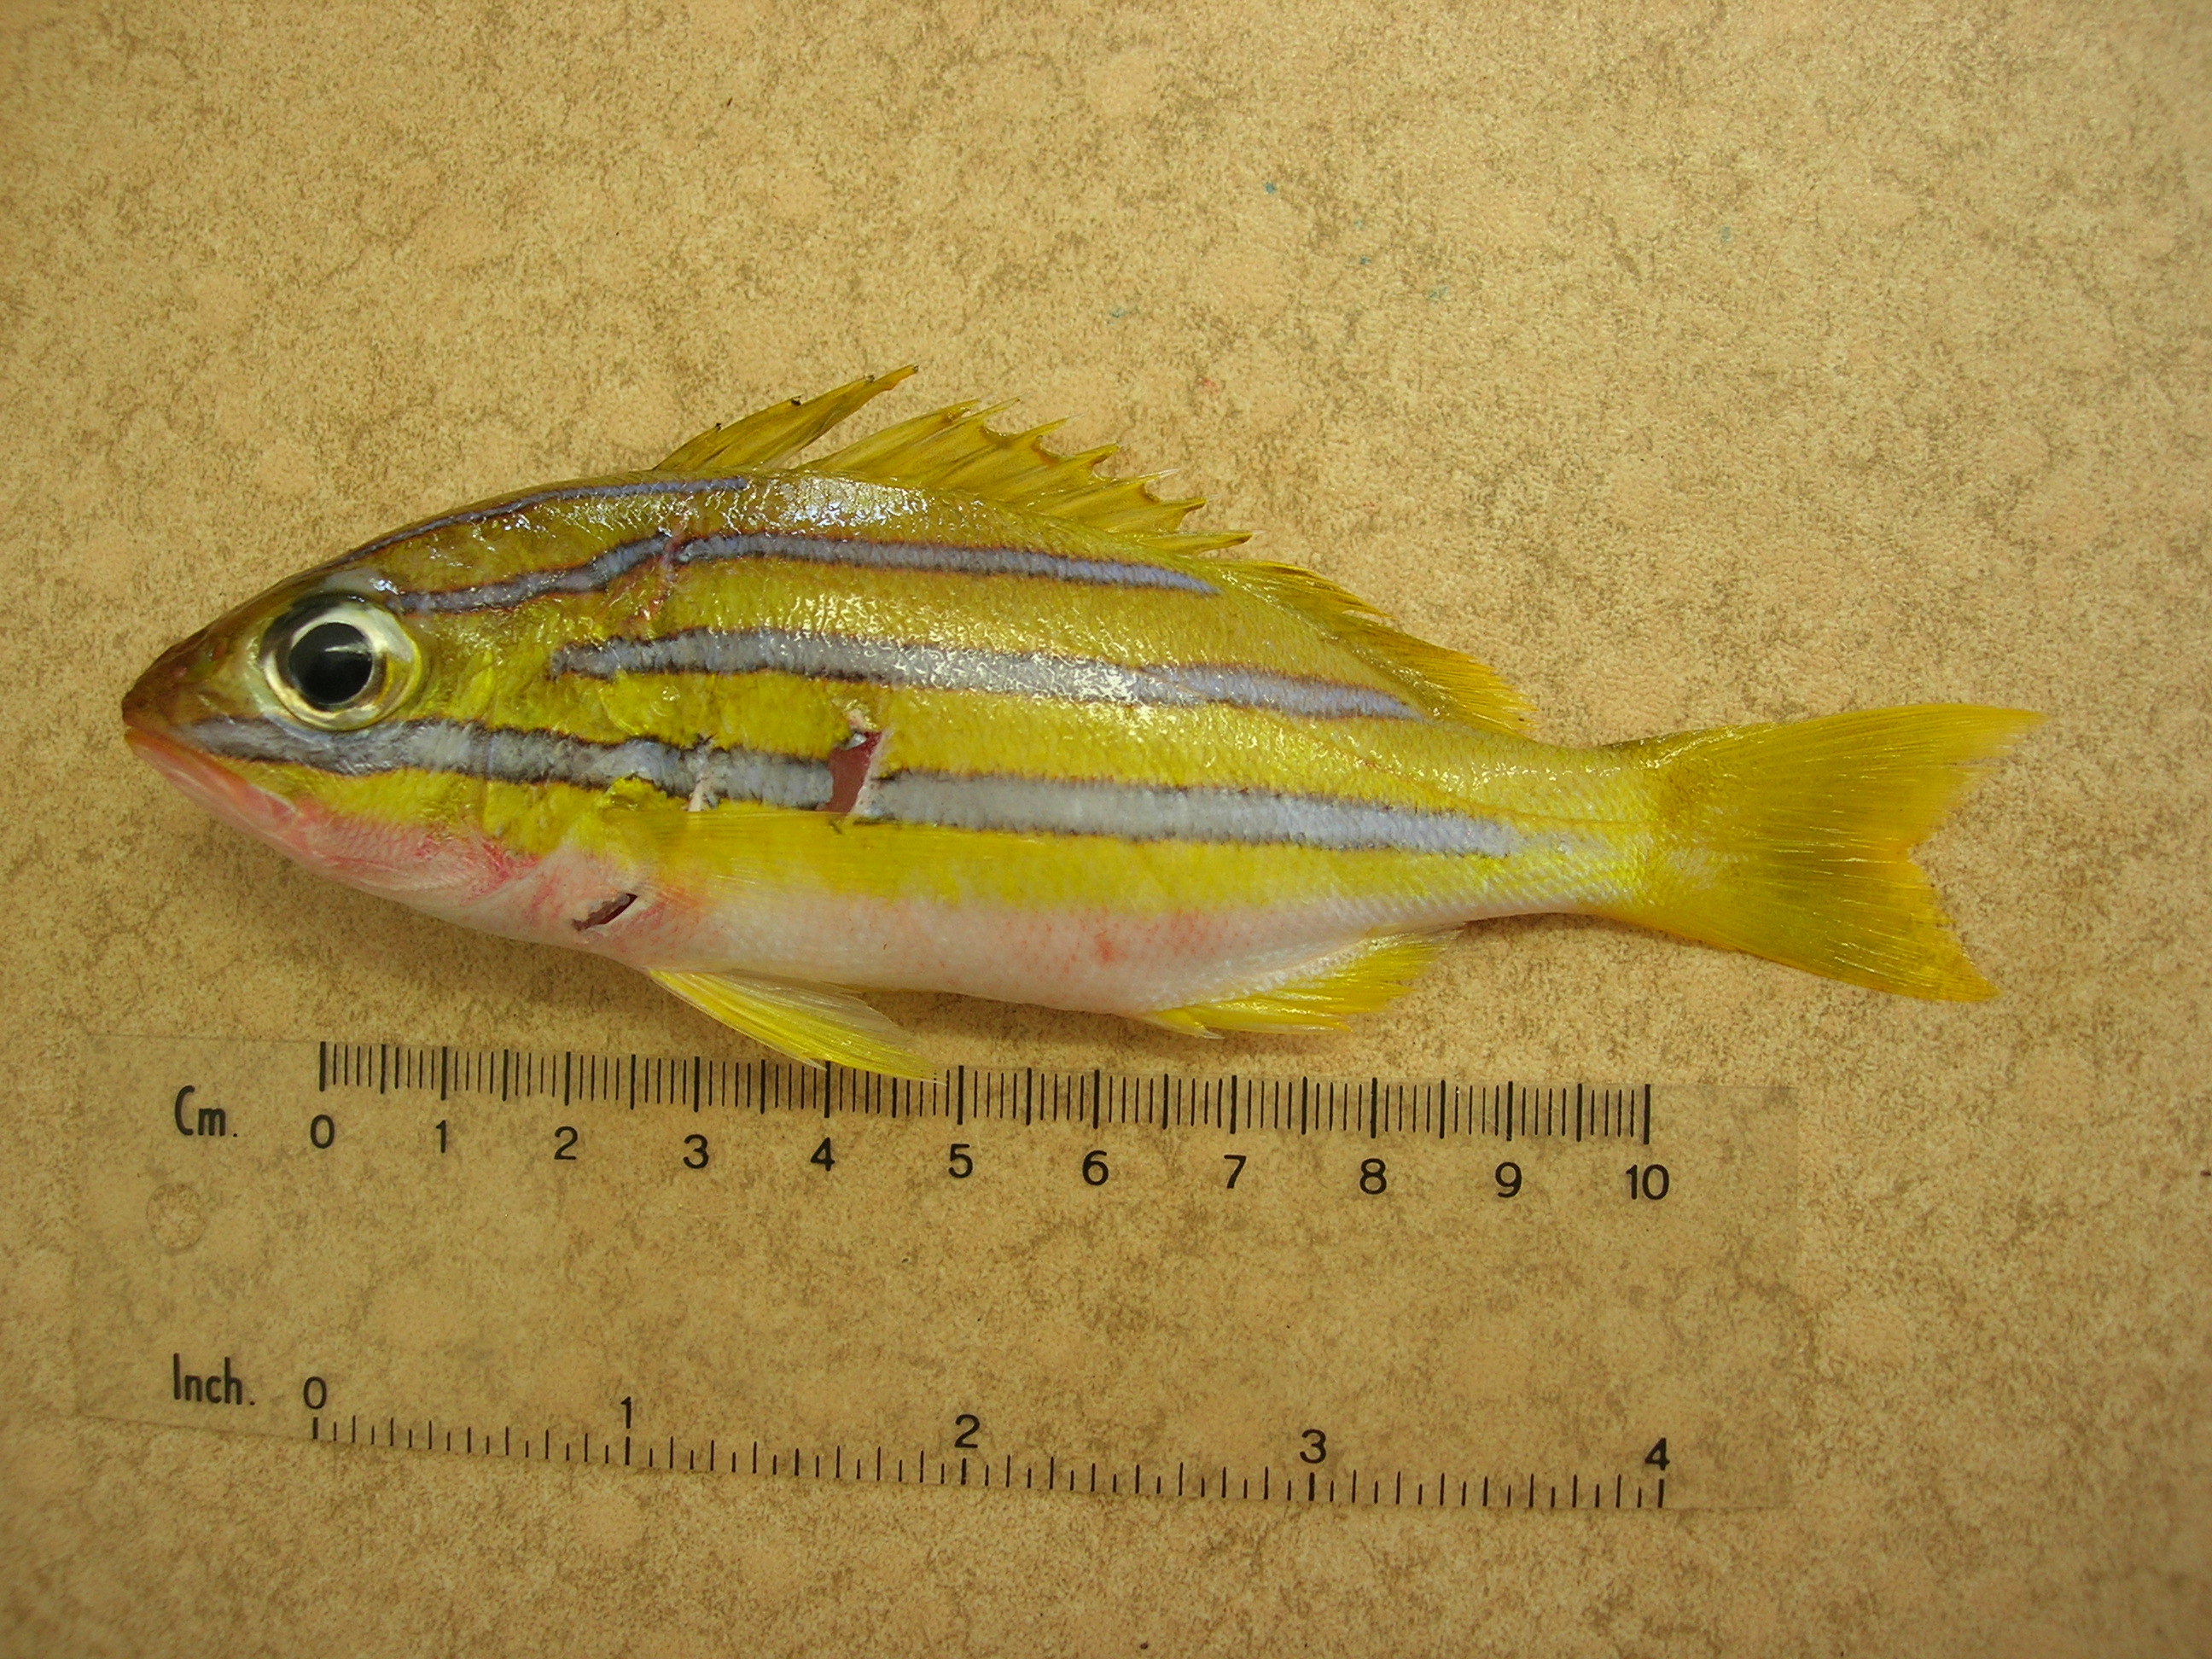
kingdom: Animalia
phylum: Chordata
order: Perciformes
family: Lutjanidae
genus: Lutjanus
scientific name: Lutjanus bengalensis
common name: Bengal snapper
